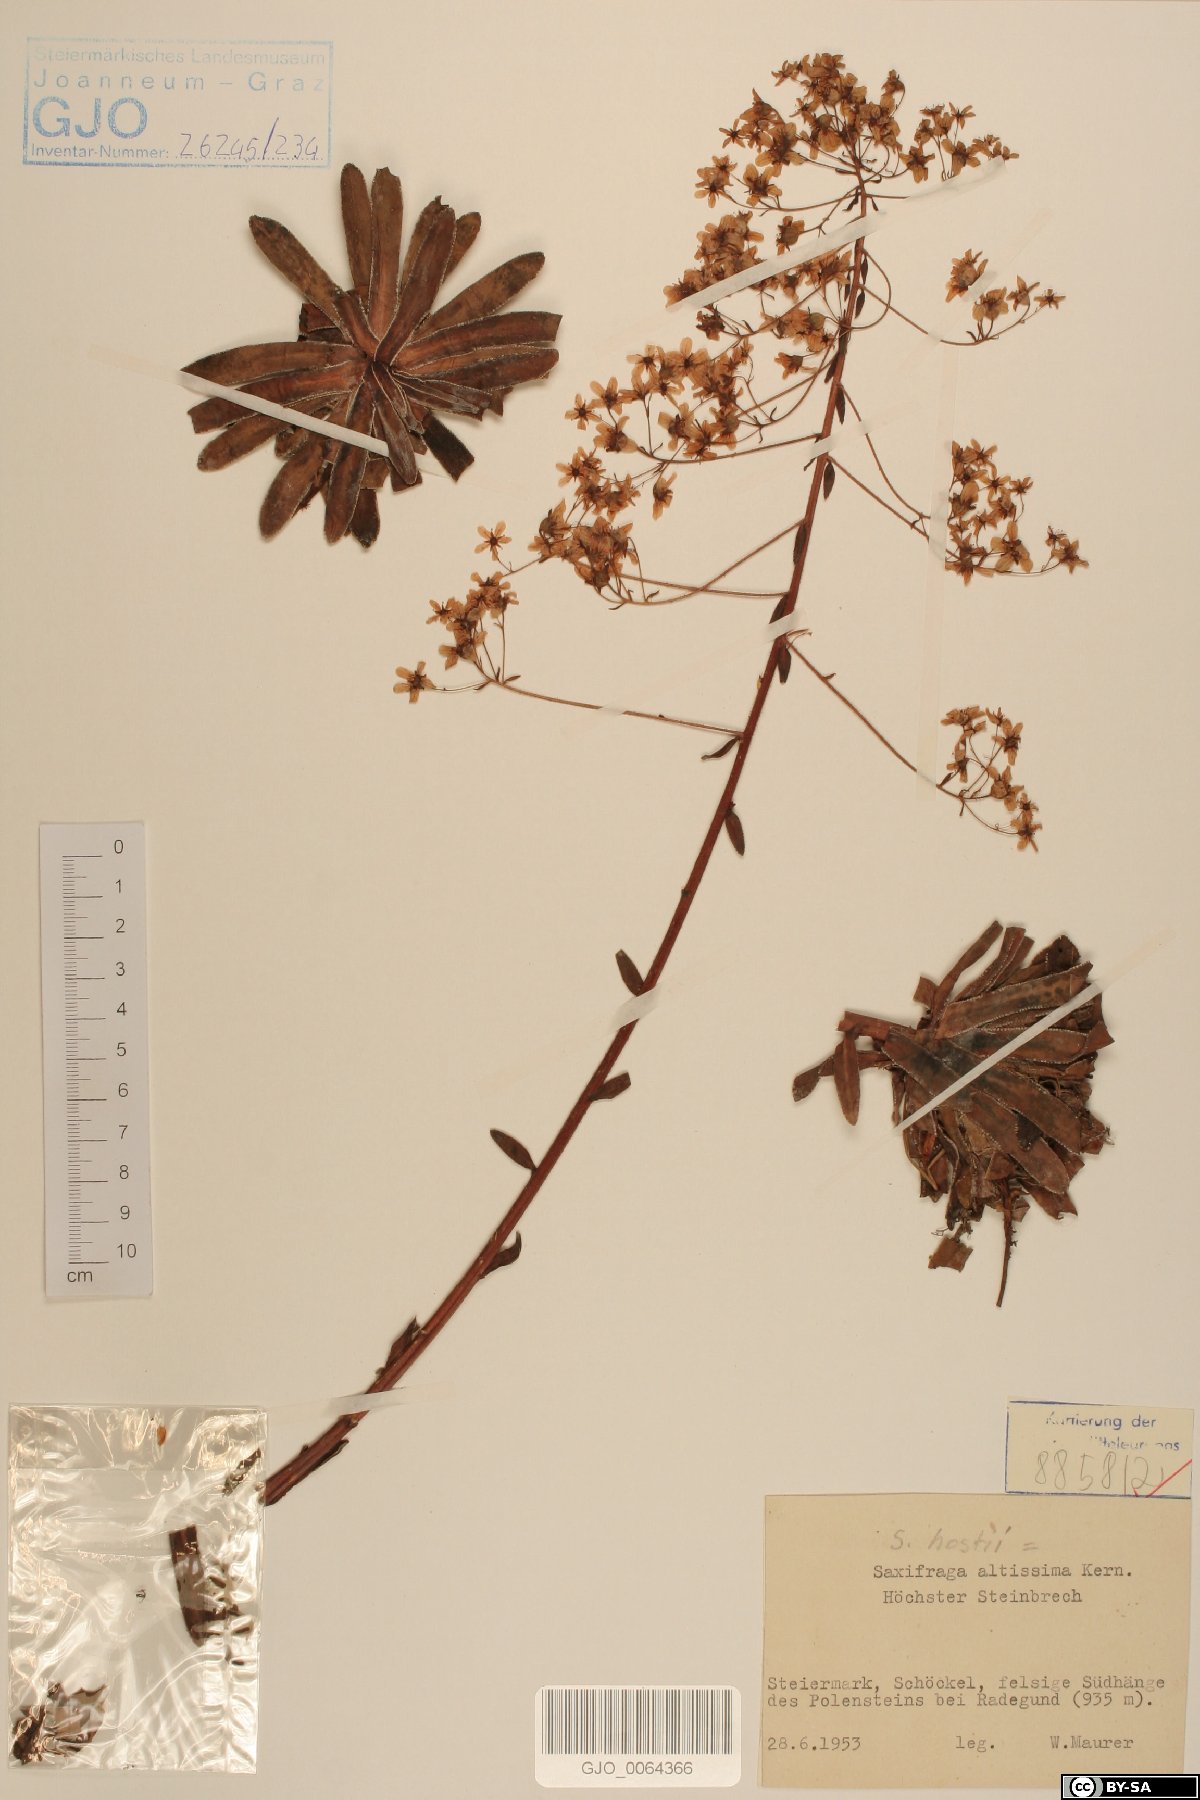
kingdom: Plantae
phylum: Tracheophyta
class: Magnoliopsida
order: Saxifragales
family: Saxifragaceae
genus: Saxifraga
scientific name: Saxifraga hostii
